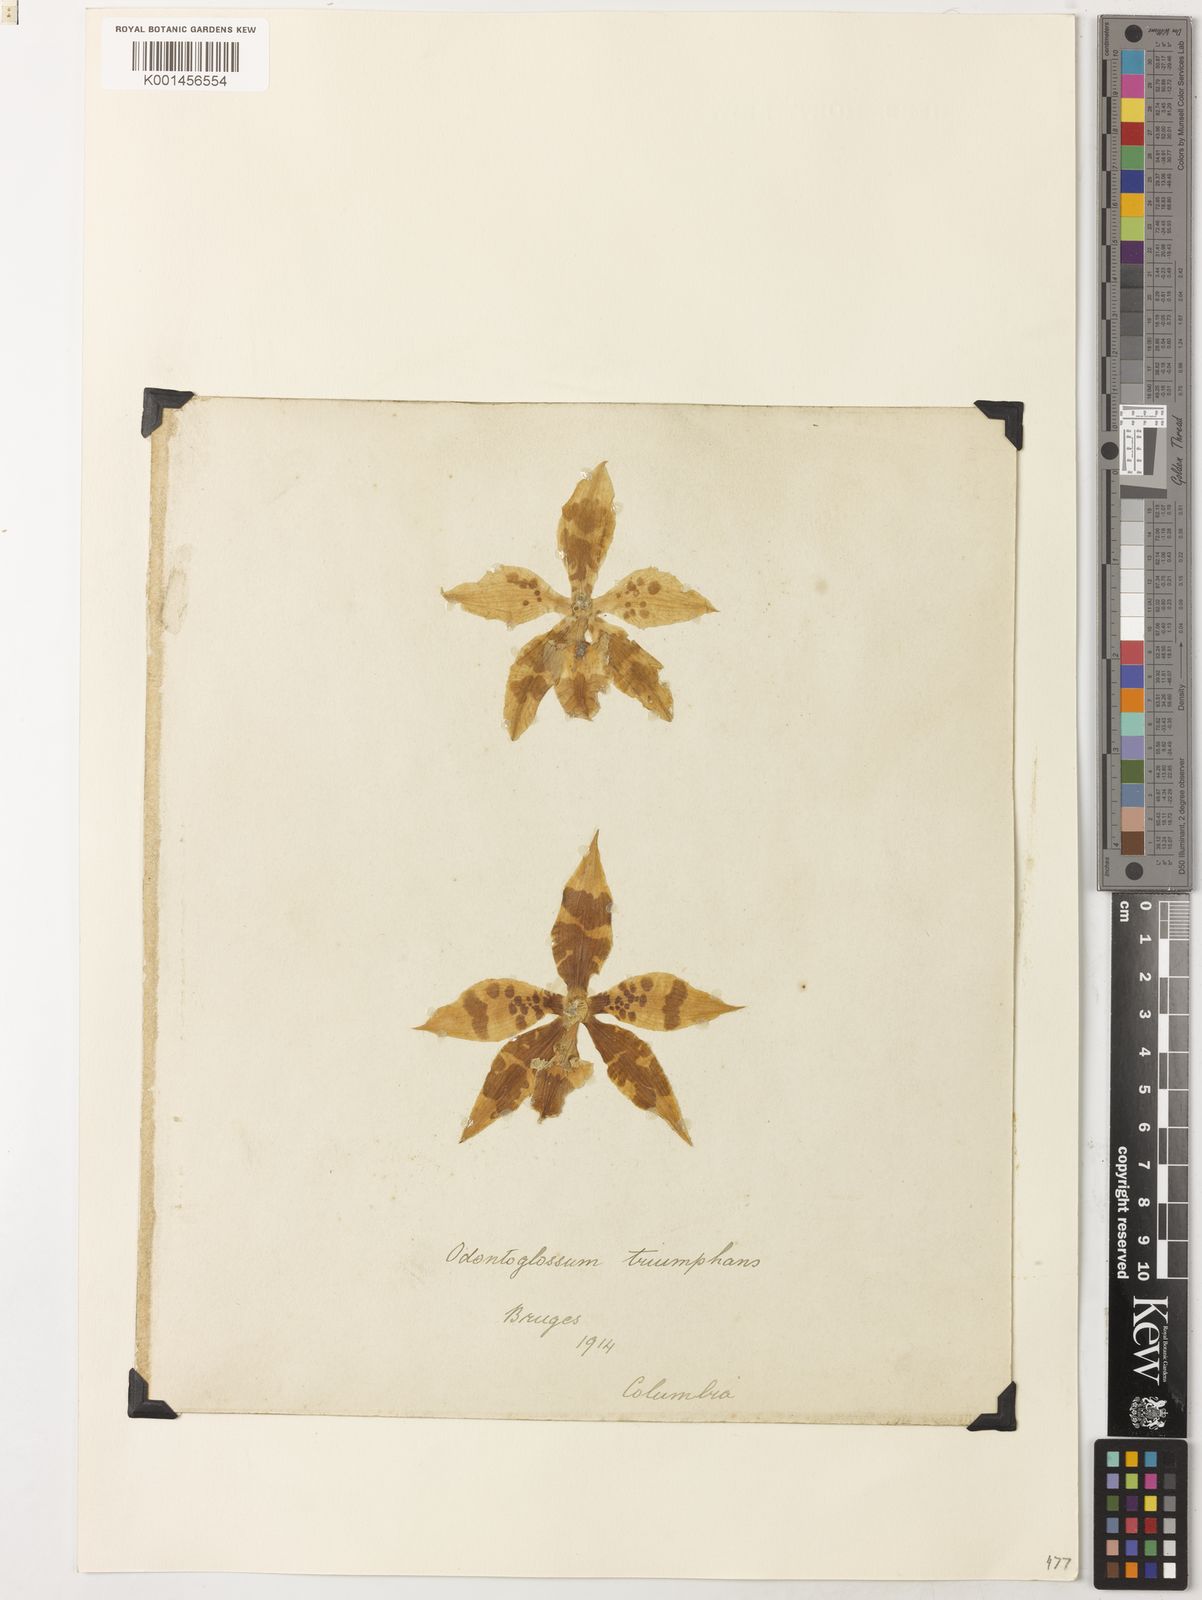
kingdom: Plantae
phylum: Tracheophyta
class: Liliopsida
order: Asparagales
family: Orchidaceae
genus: Oncidium
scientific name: Oncidium spectatissimum
